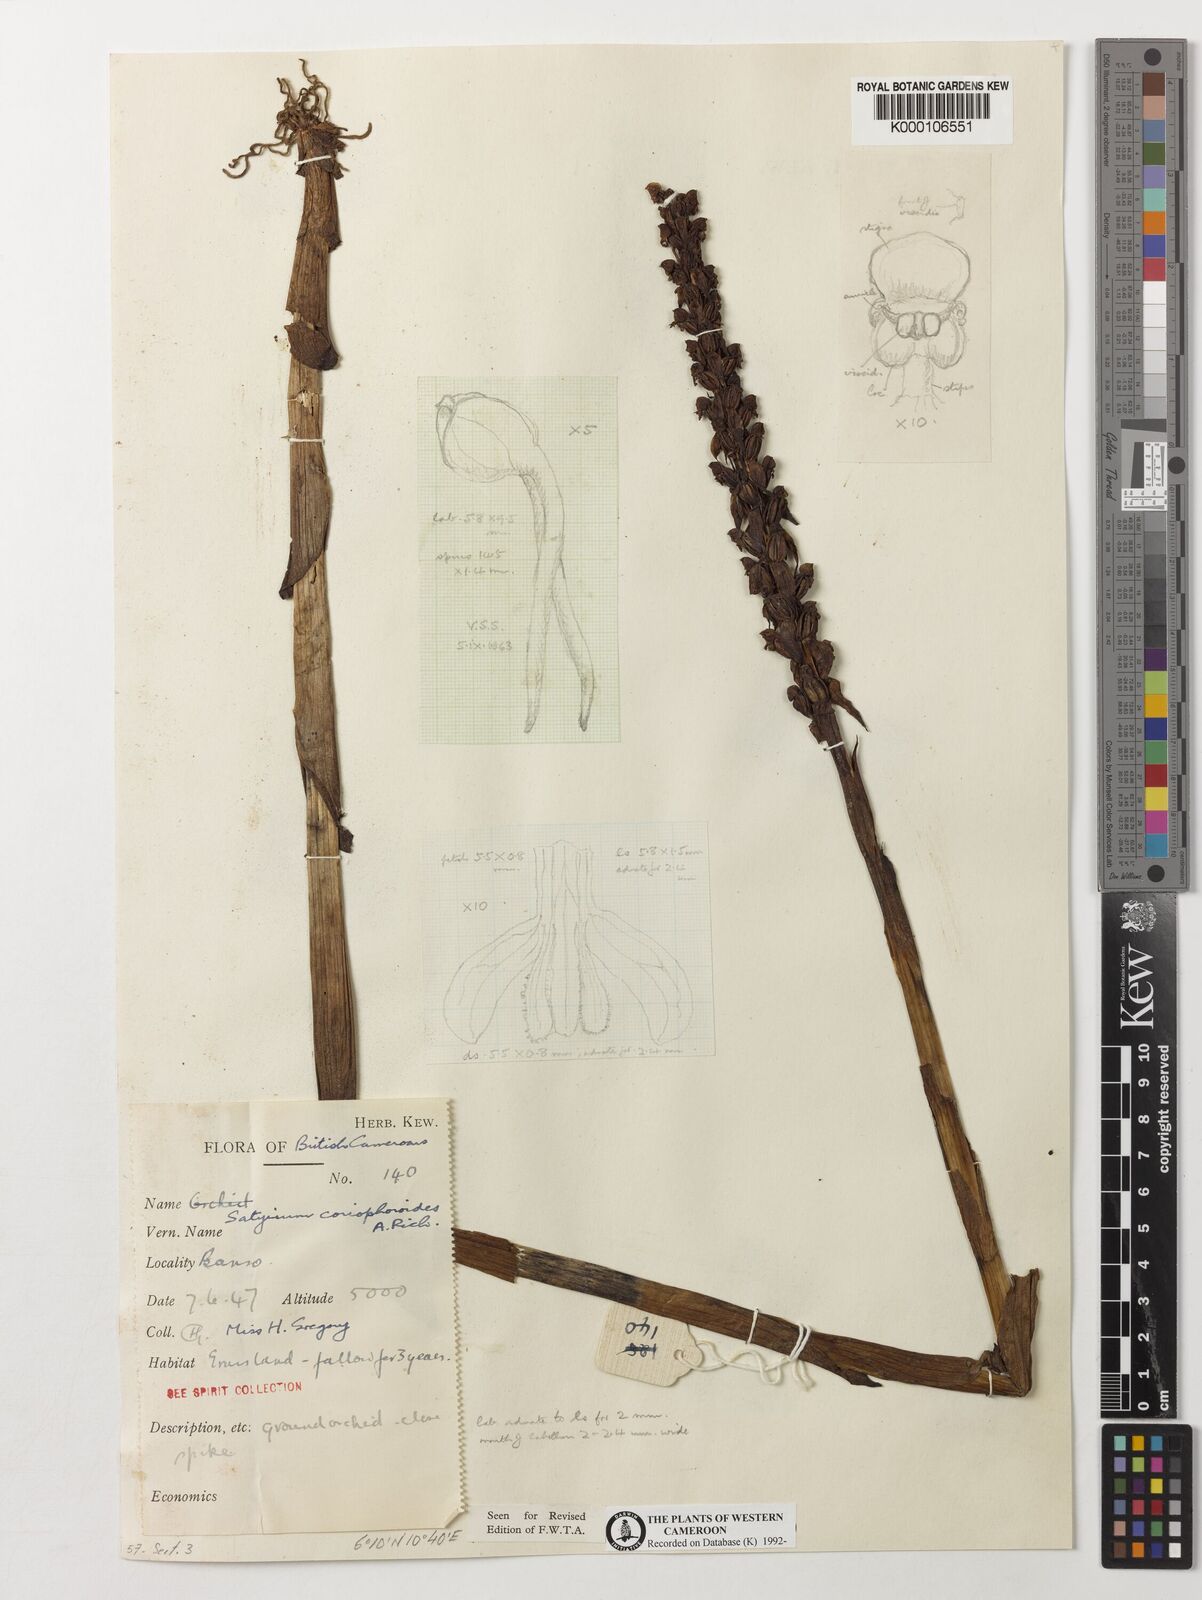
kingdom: Plantae
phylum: Tracheophyta
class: Liliopsida
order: Asparagales
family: Orchidaceae
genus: Satyrium
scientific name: Satyrium coriophoroides
